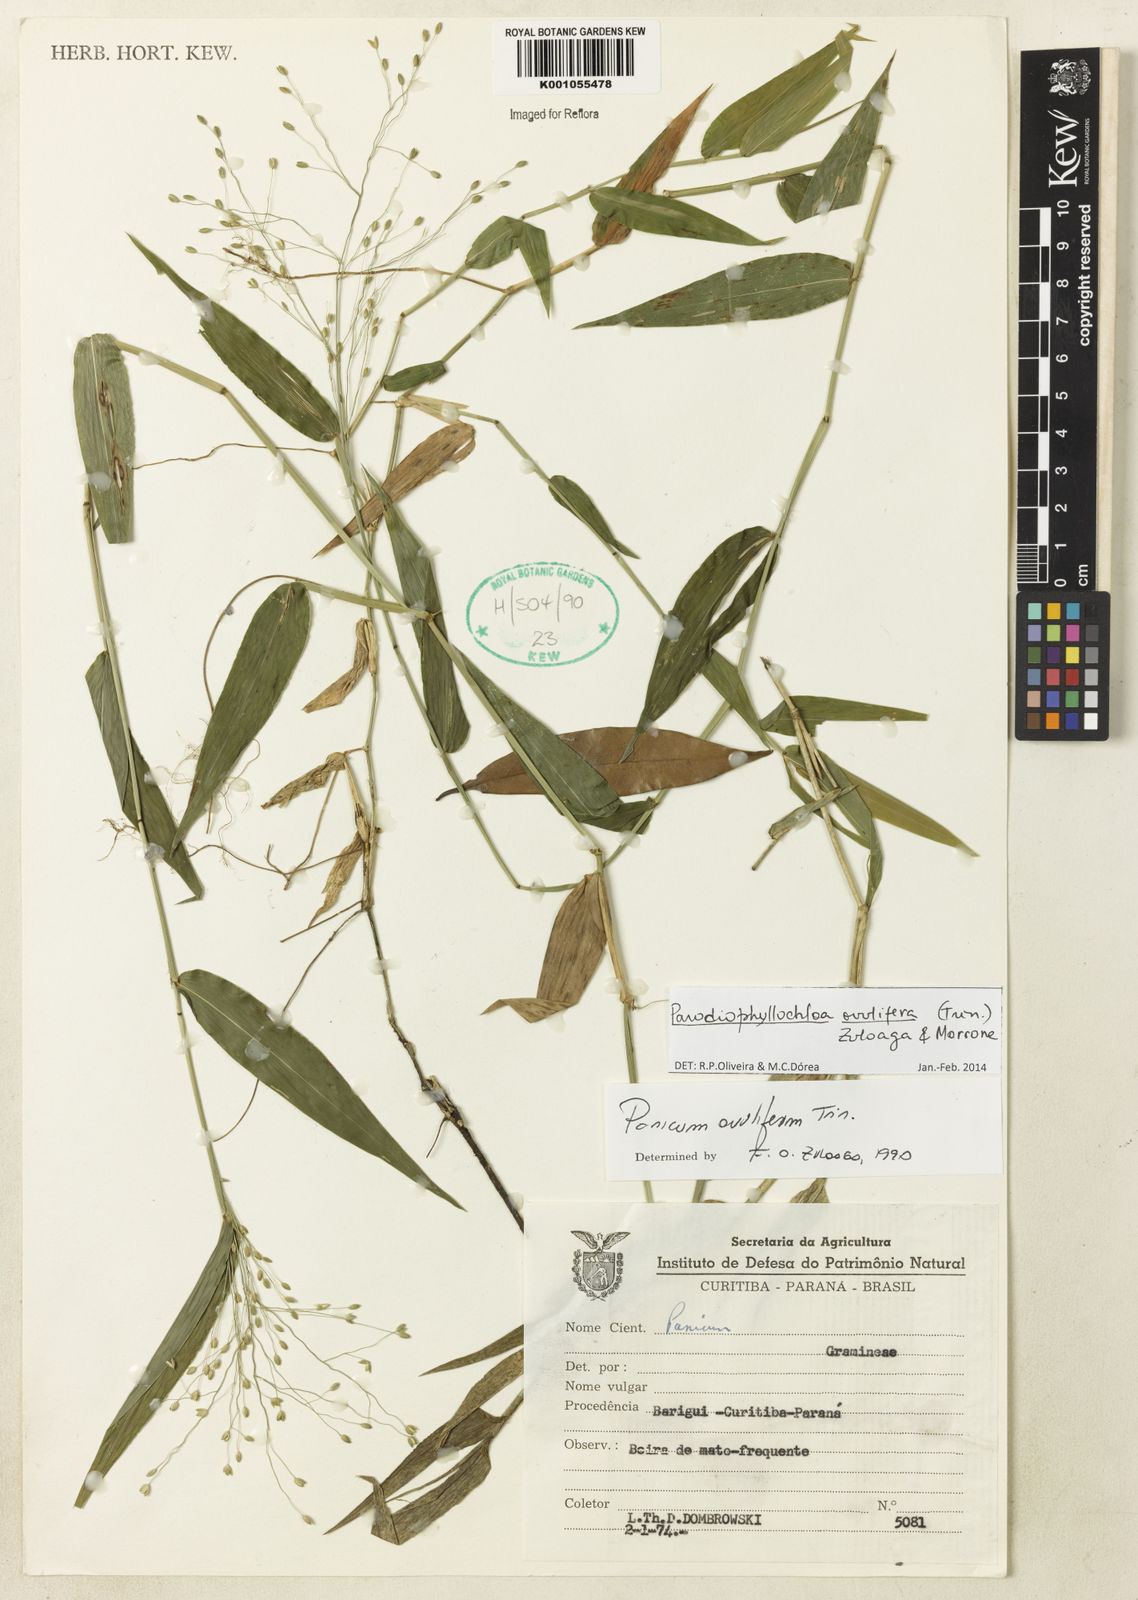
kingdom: Plantae
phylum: Tracheophyta
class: Liliopsida
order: Poales
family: Poaceae
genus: Parodiophyllochloa
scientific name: Parodiophyllochloa ovulifera
